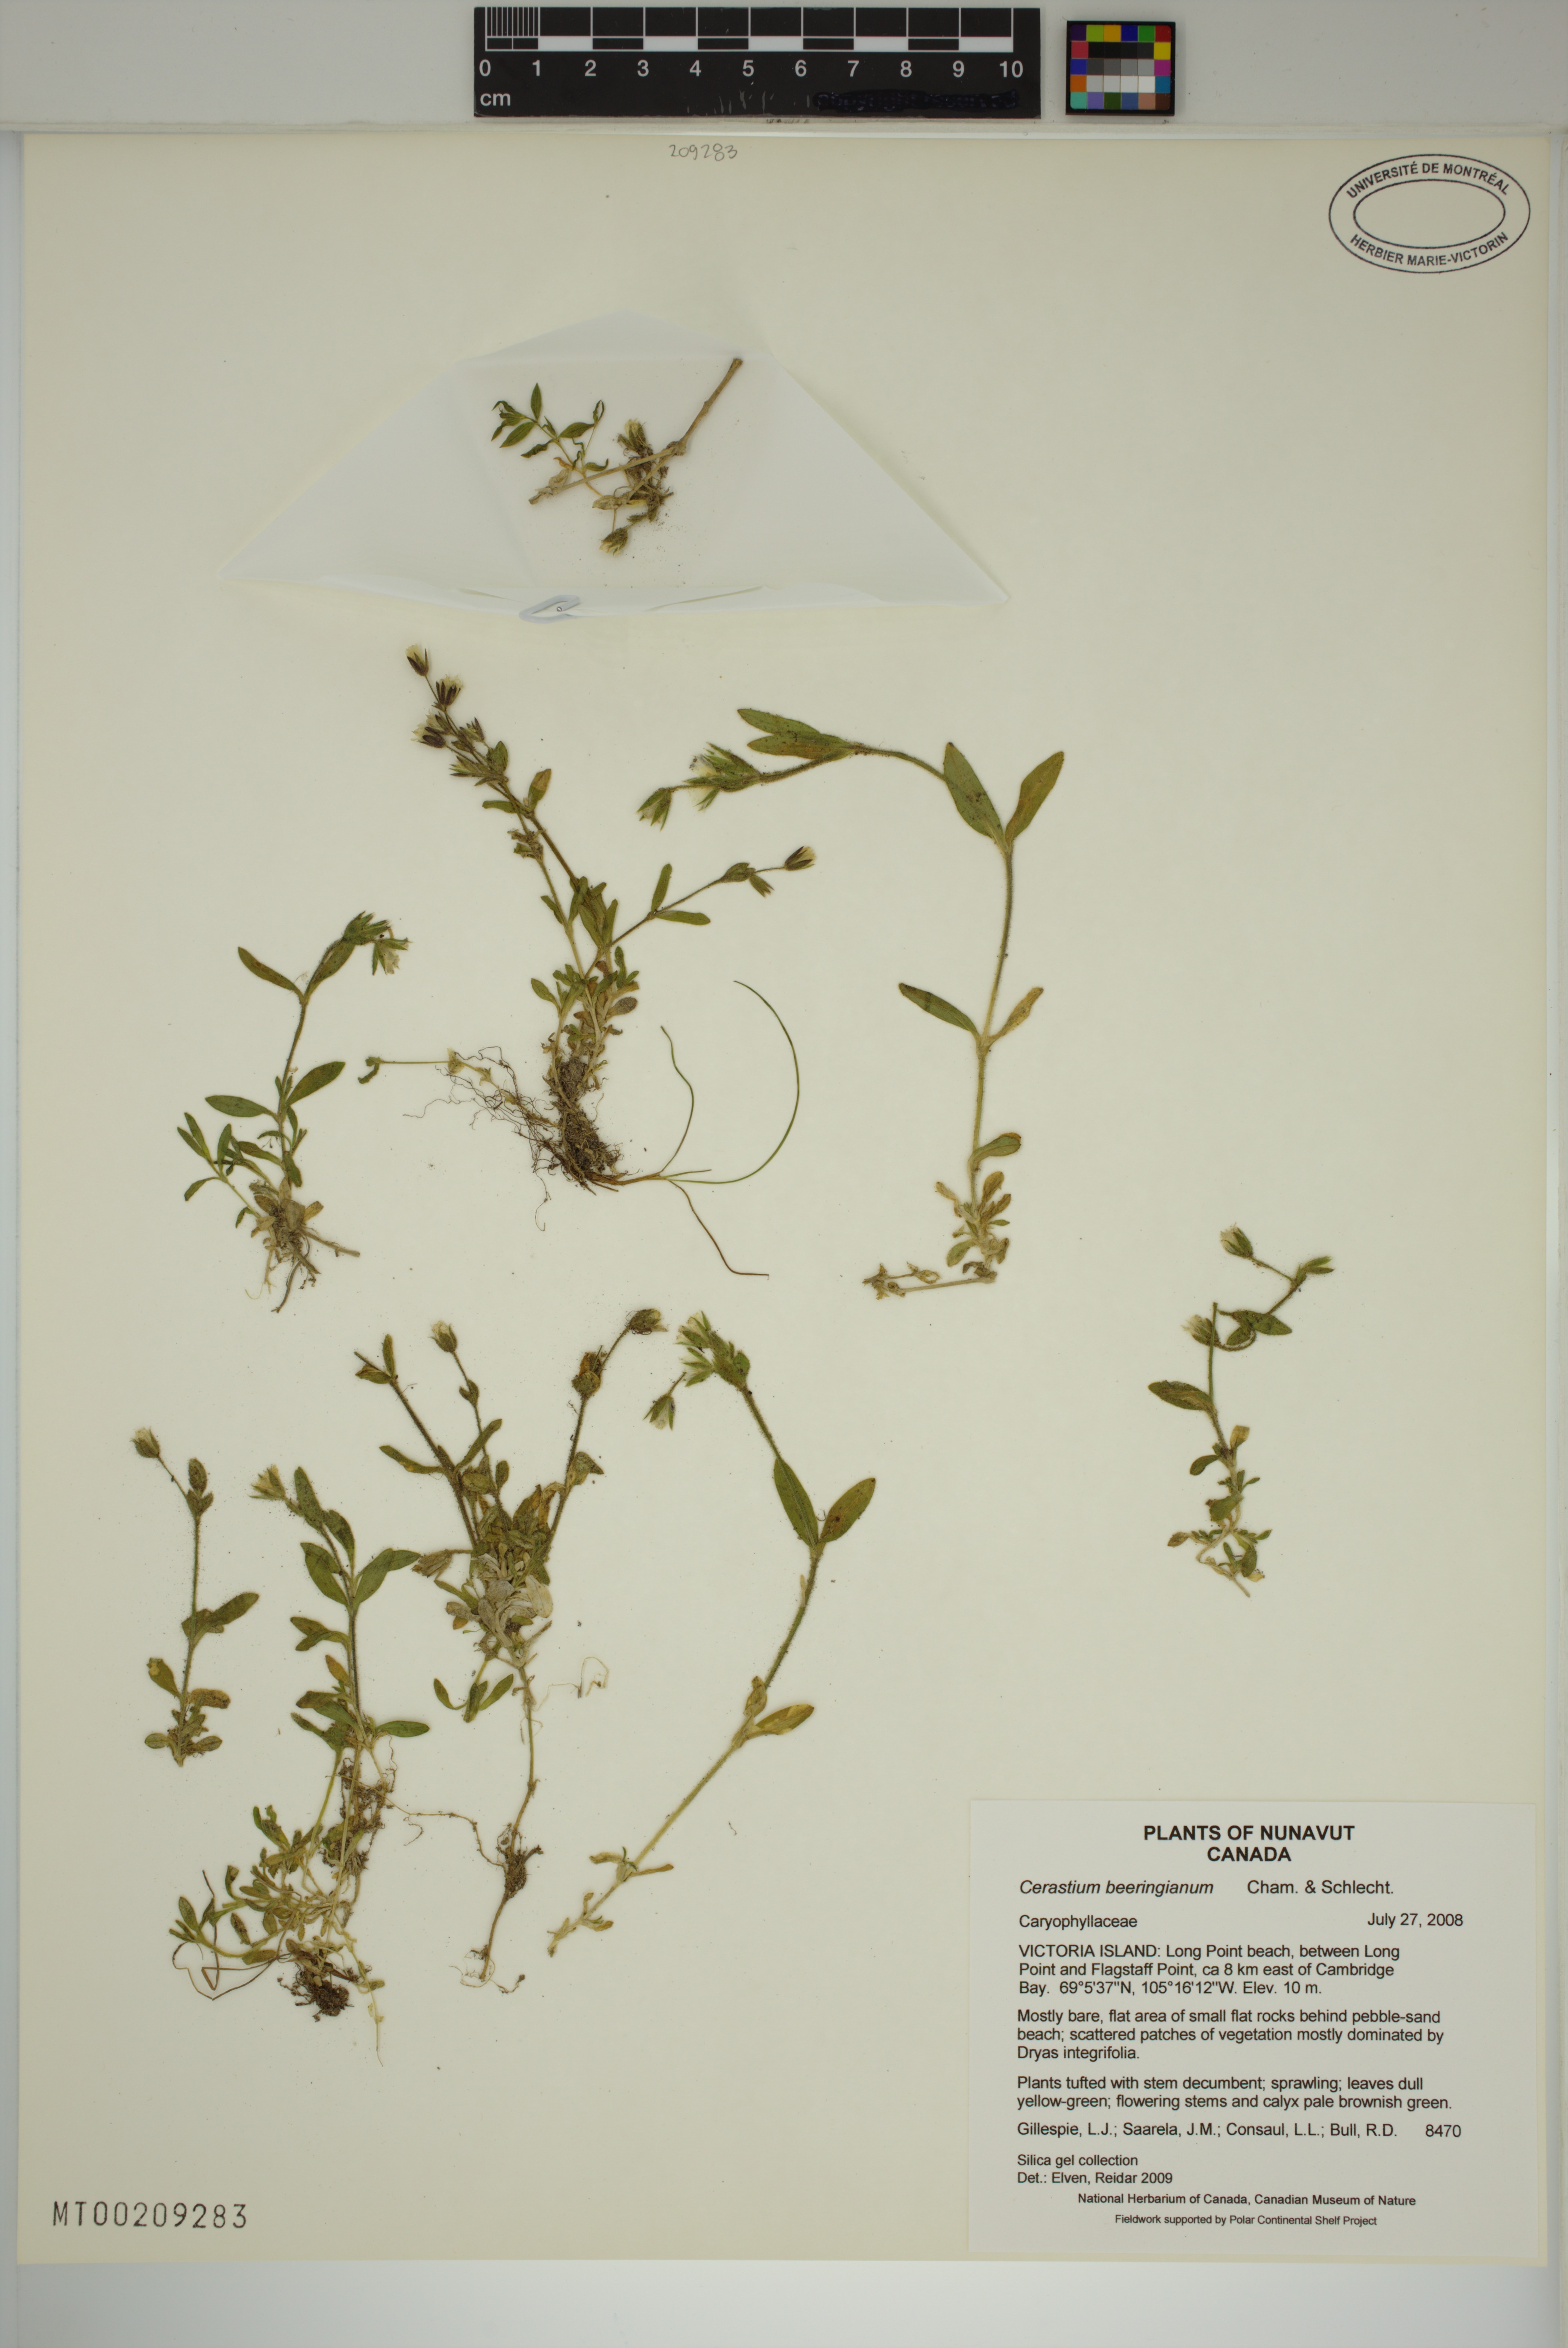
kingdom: Plantae
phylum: Tracheophyta
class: Magnoliopsida
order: Caryophyllales
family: Caryophyllaceae
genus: Cerastium
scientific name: Cerastium beeringianum
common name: Bering mouse-ear chickweed
